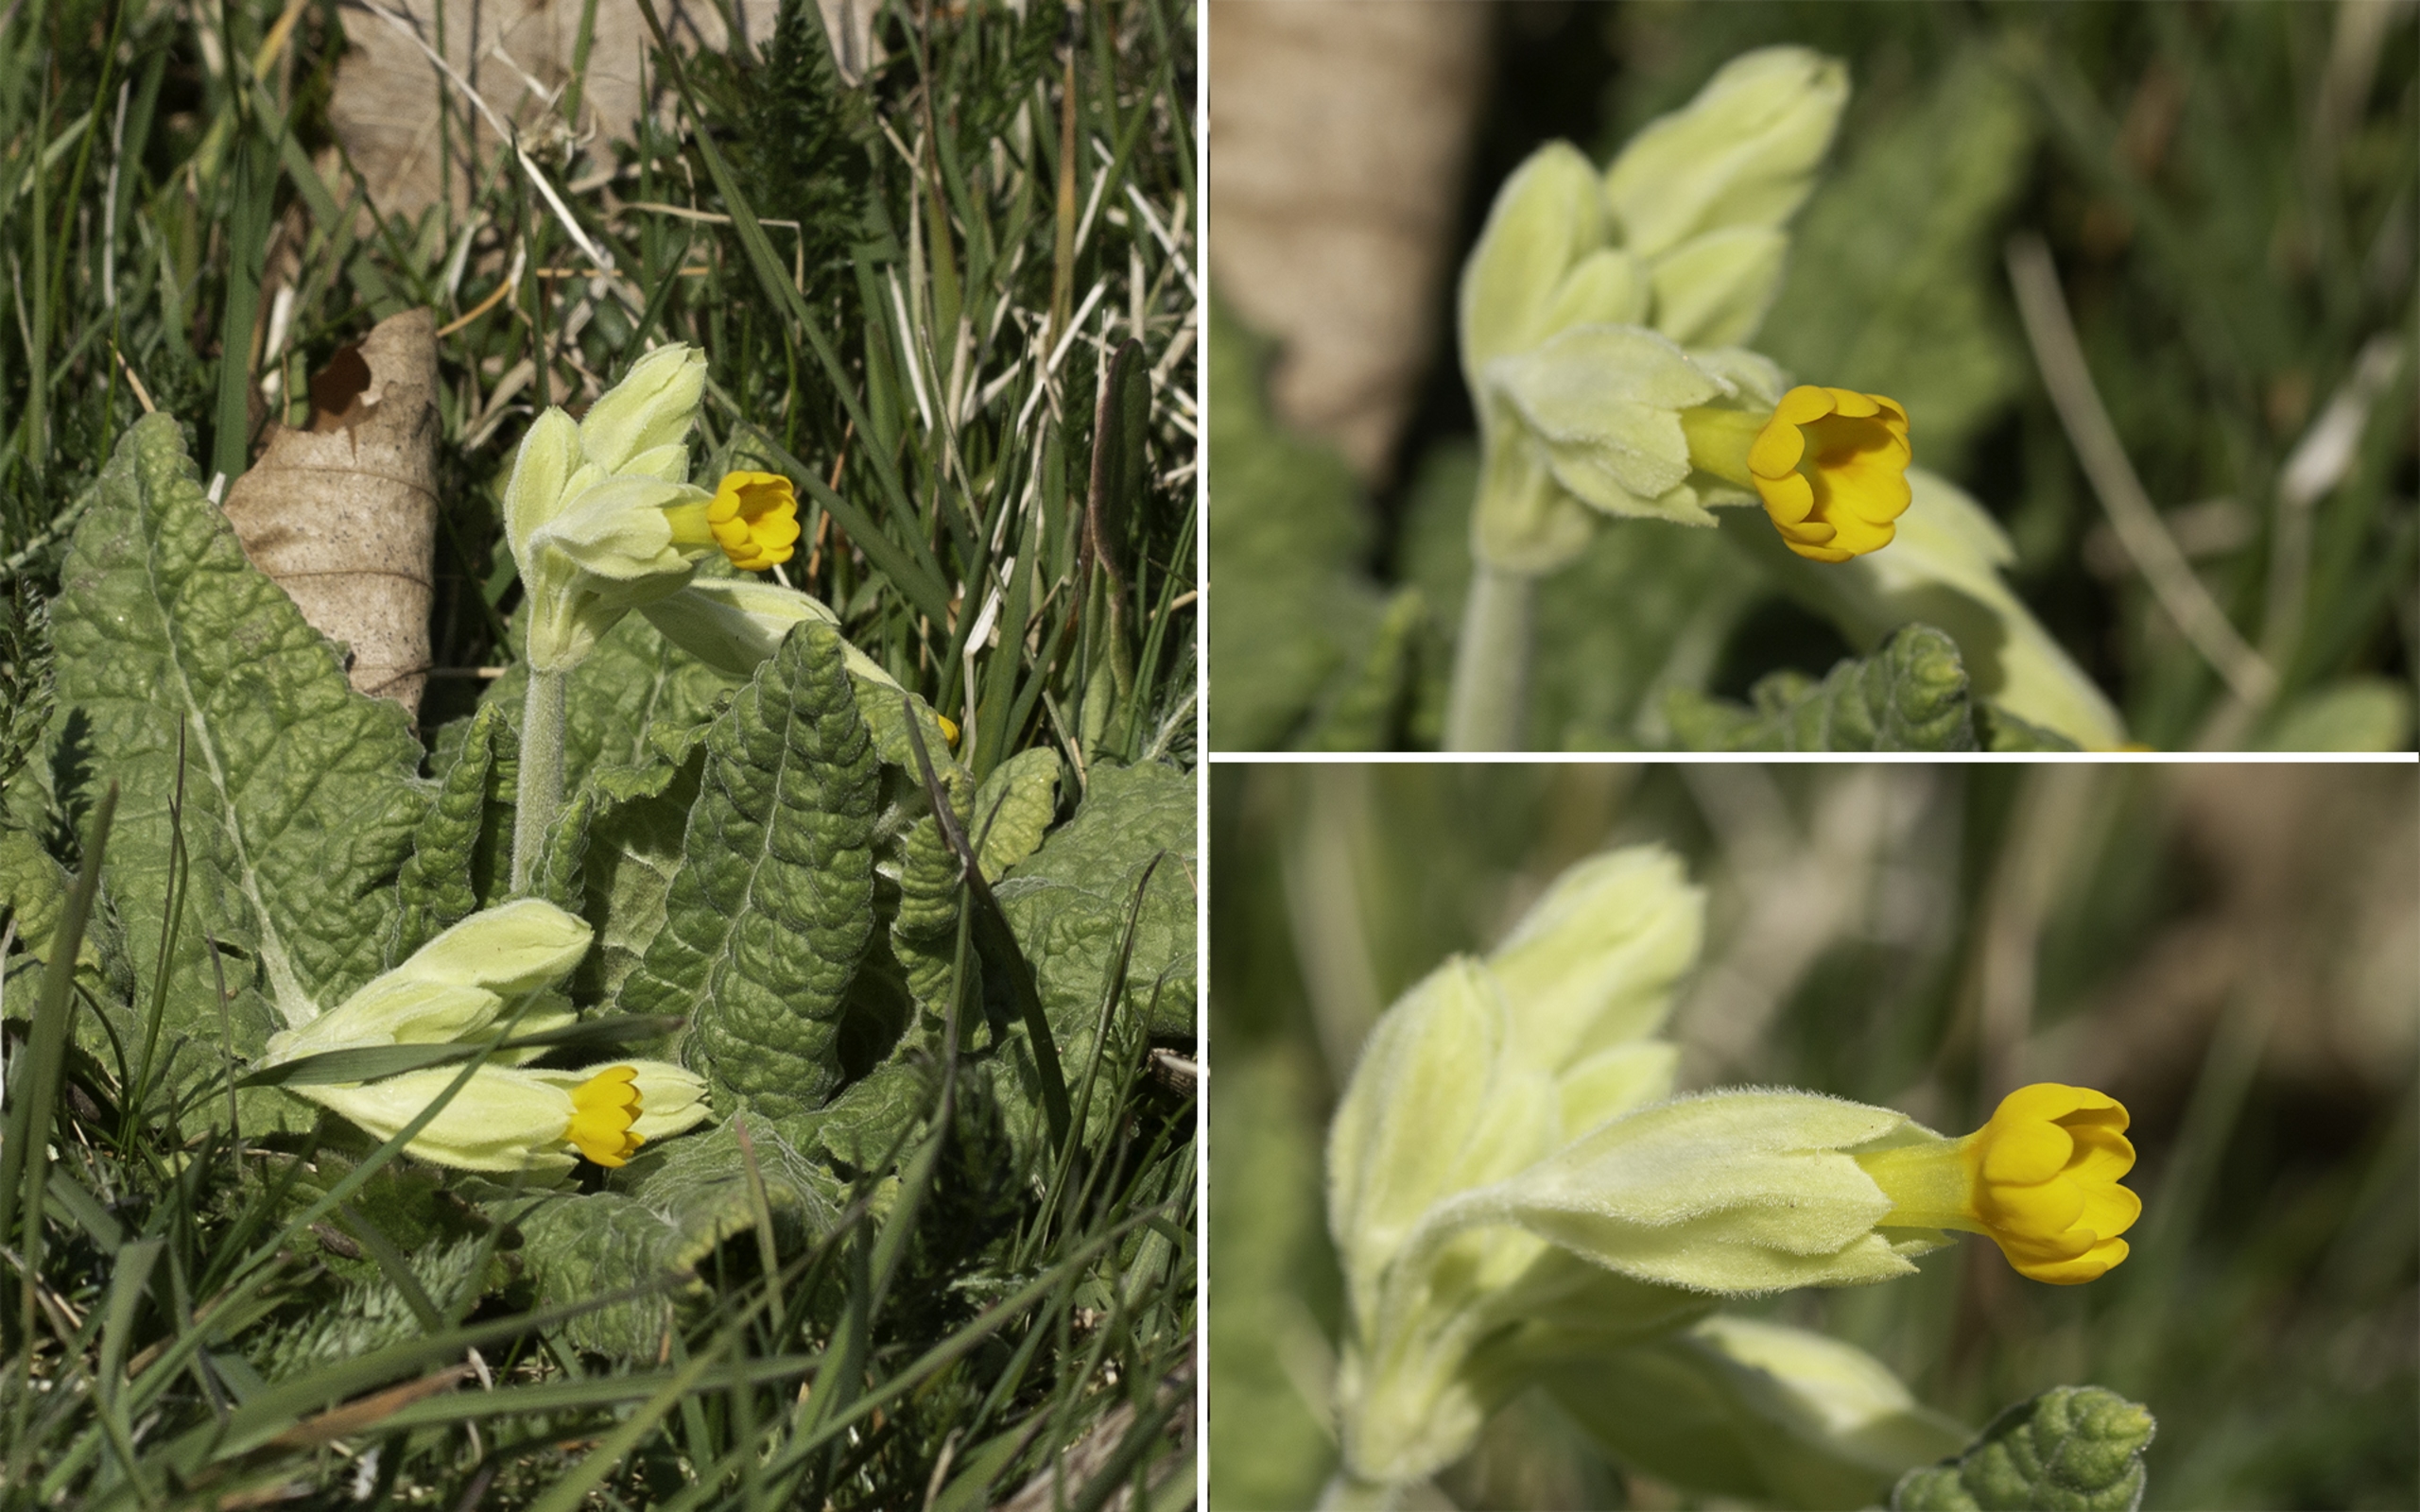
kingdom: Plantae
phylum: Tracheophyta
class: Magnoliopsida
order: Ericales
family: Primulaceae
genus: Primula
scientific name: Primula veris
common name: Hulkravet kodriver
